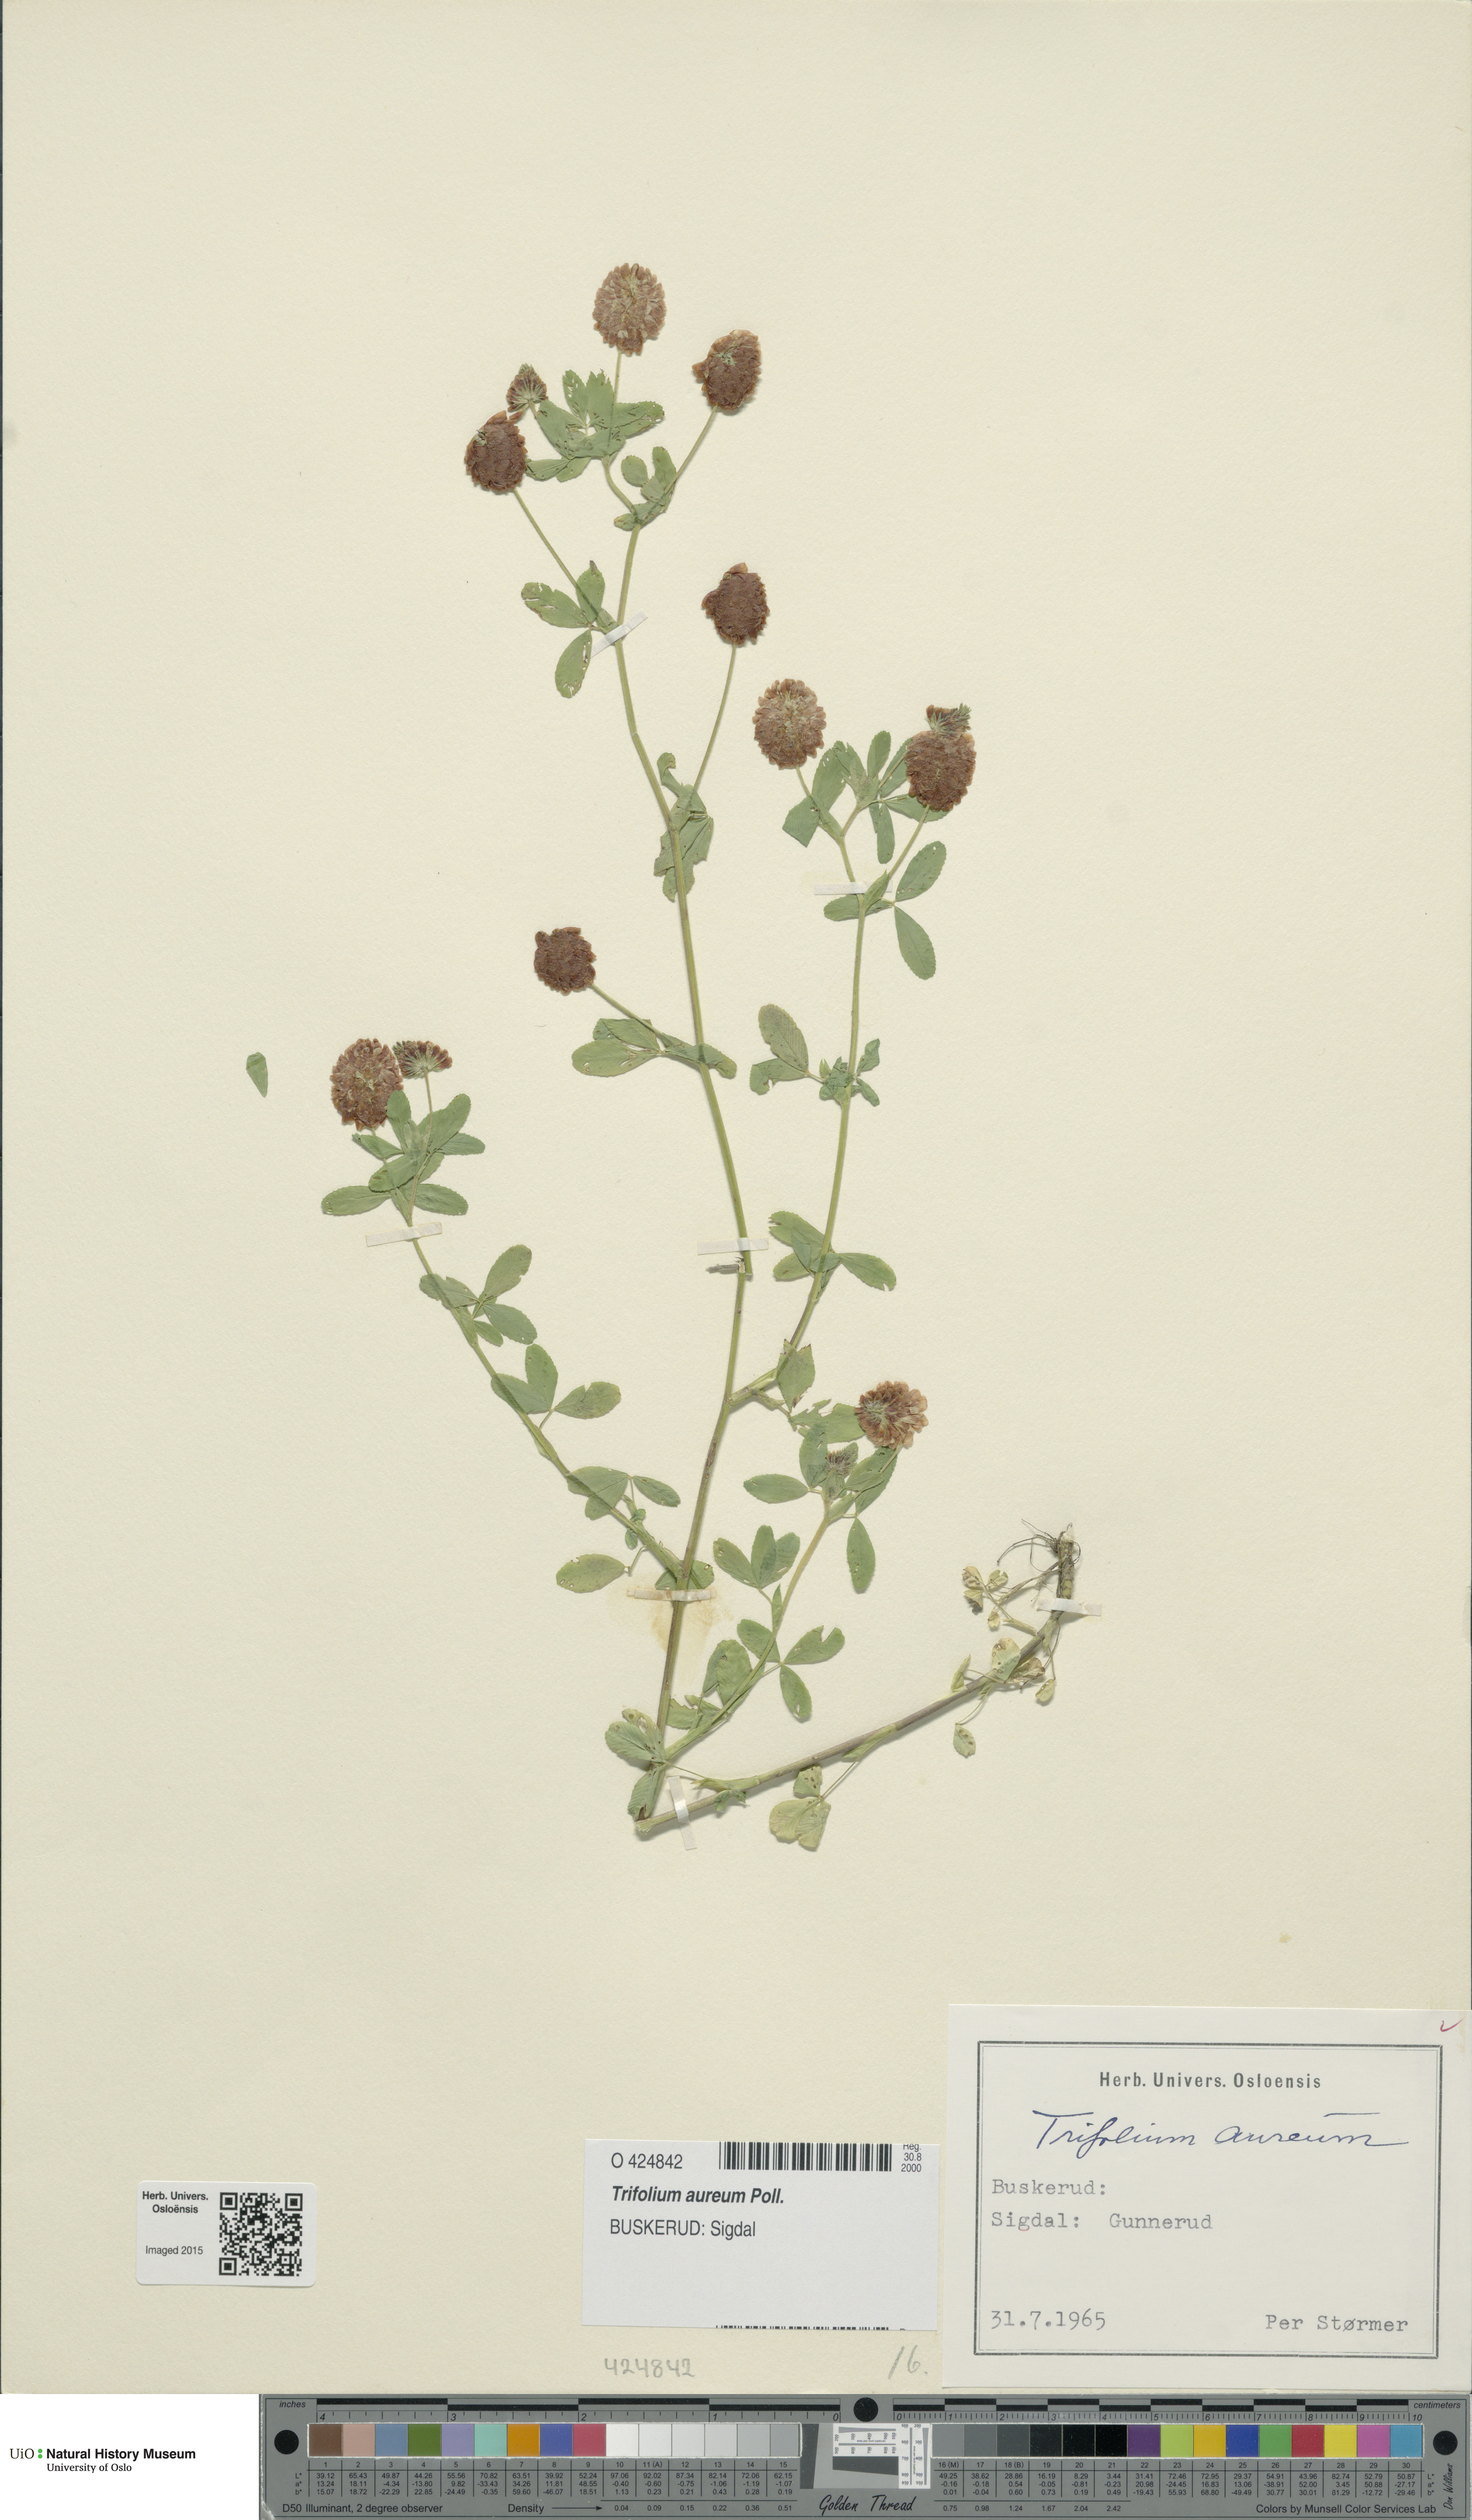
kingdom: Plantae
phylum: Tracheophyta
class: Magnoliopsida
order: Fabales
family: Fabaceae
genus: Trifolium
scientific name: Trifolium aureum
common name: Golden clover
